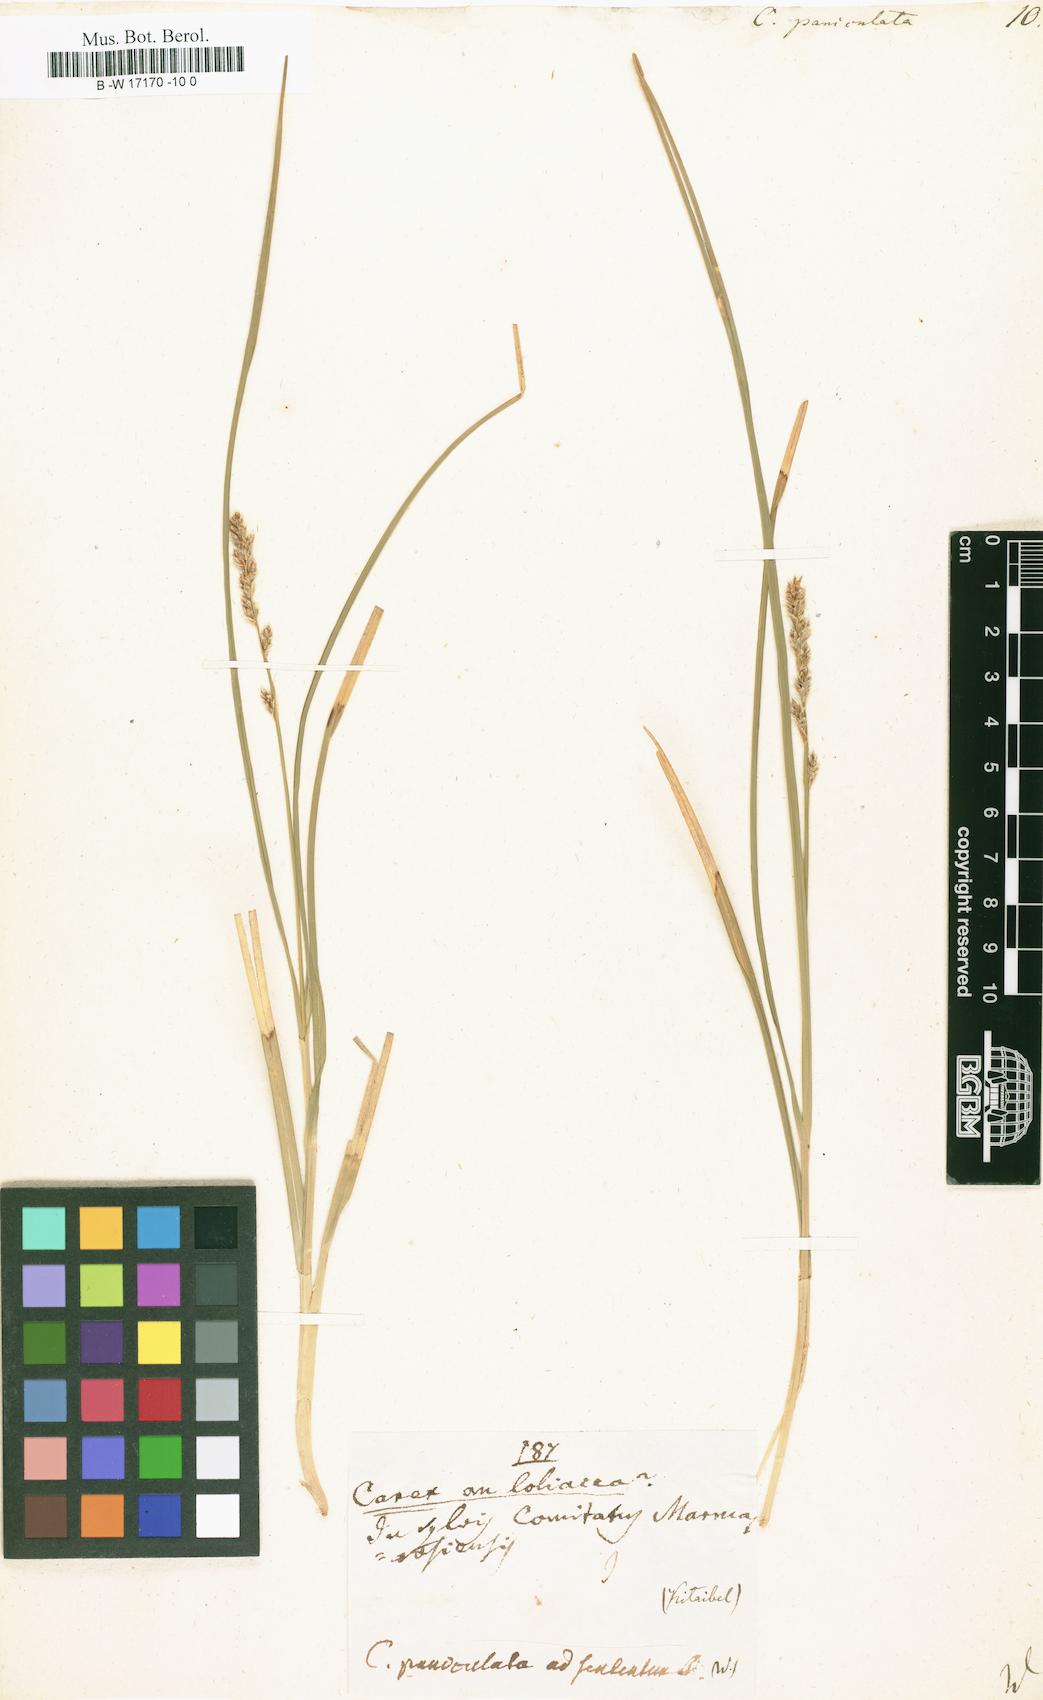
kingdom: Plantae
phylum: Tracheophyta
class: Liliopsida
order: Poales
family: Cyperaceae
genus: Carex
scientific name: Carex paniculata
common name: Greater tussock-sedge
